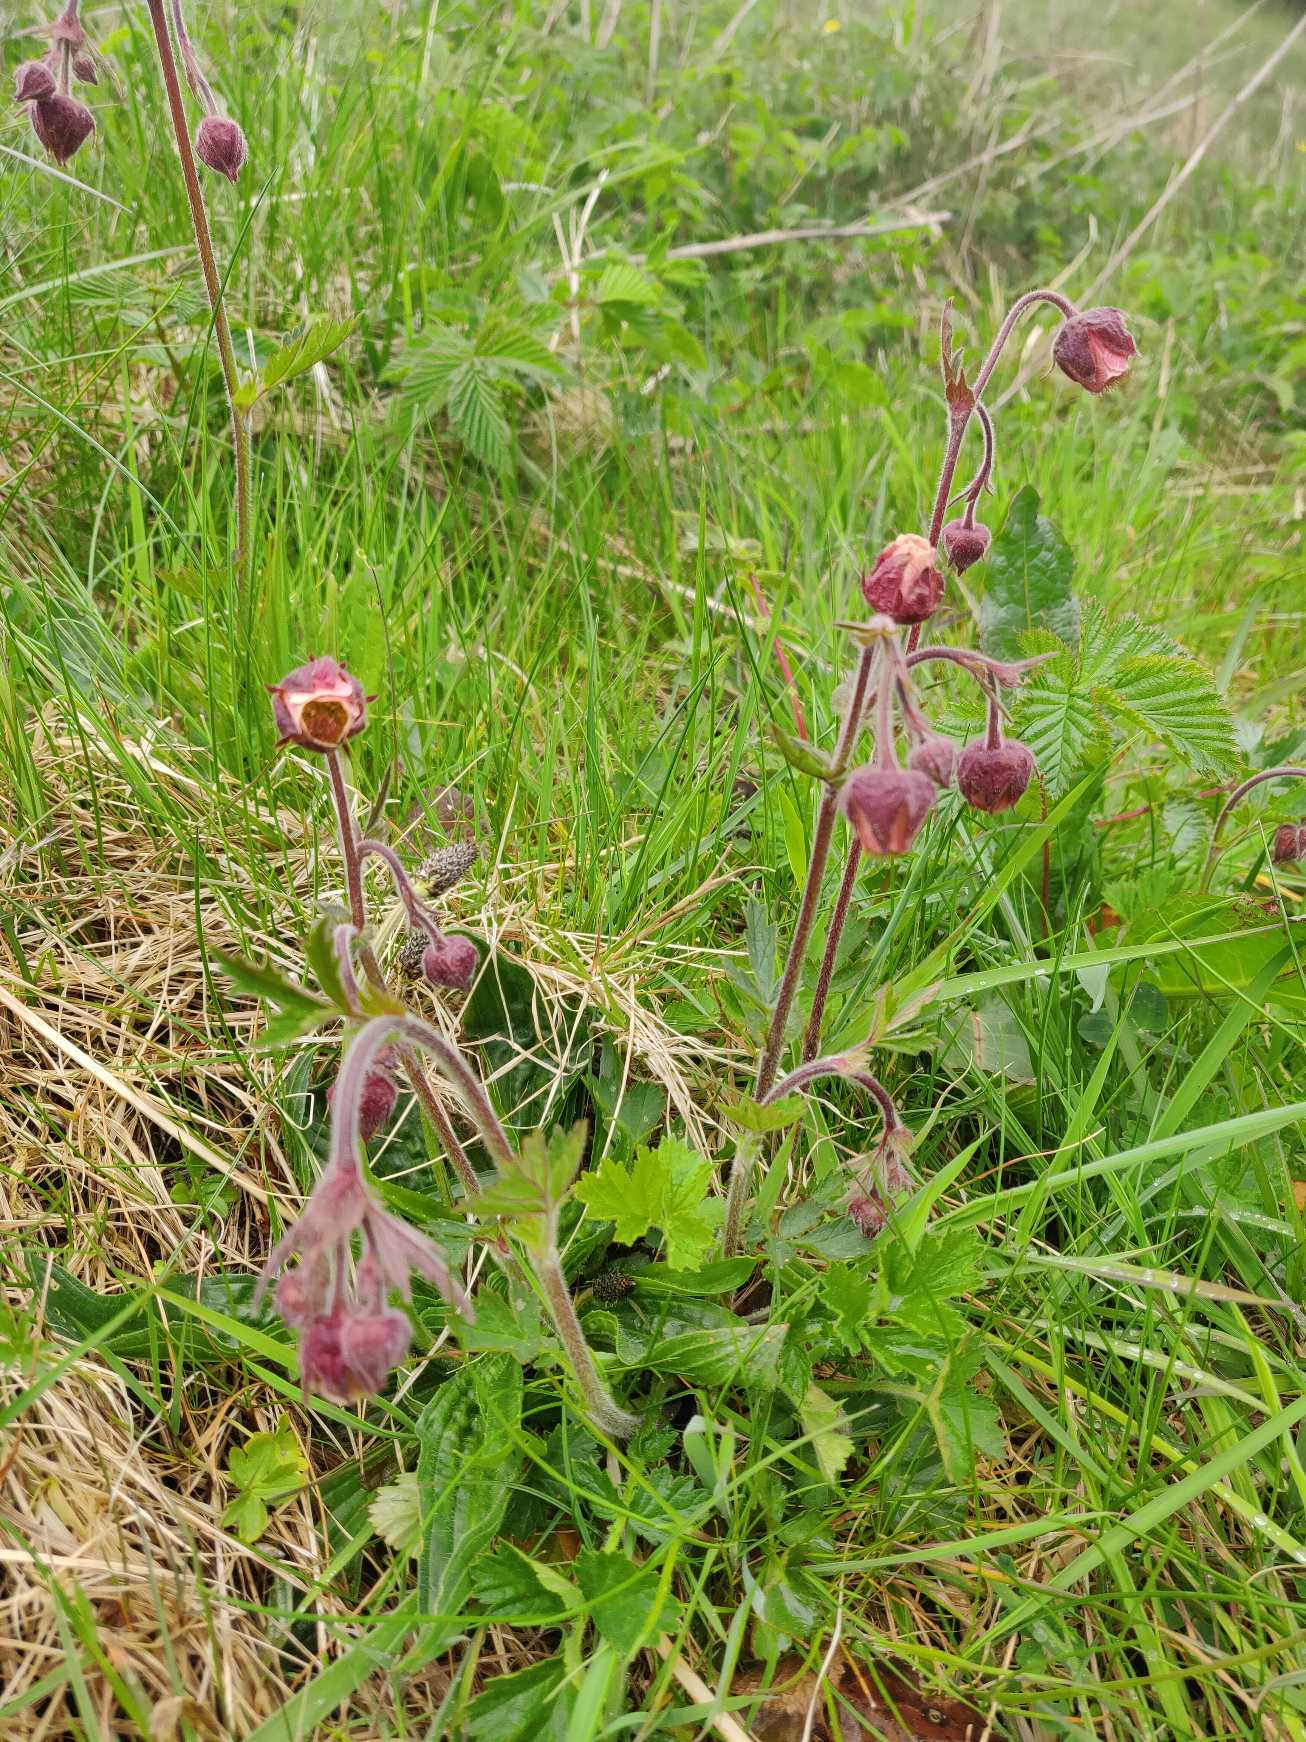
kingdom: Plantae
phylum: Tracheophyta
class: Magnoliopsida
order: Rosales
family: Rosaceae
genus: Geum
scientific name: Geum rivale
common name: Eng-nellikerod
